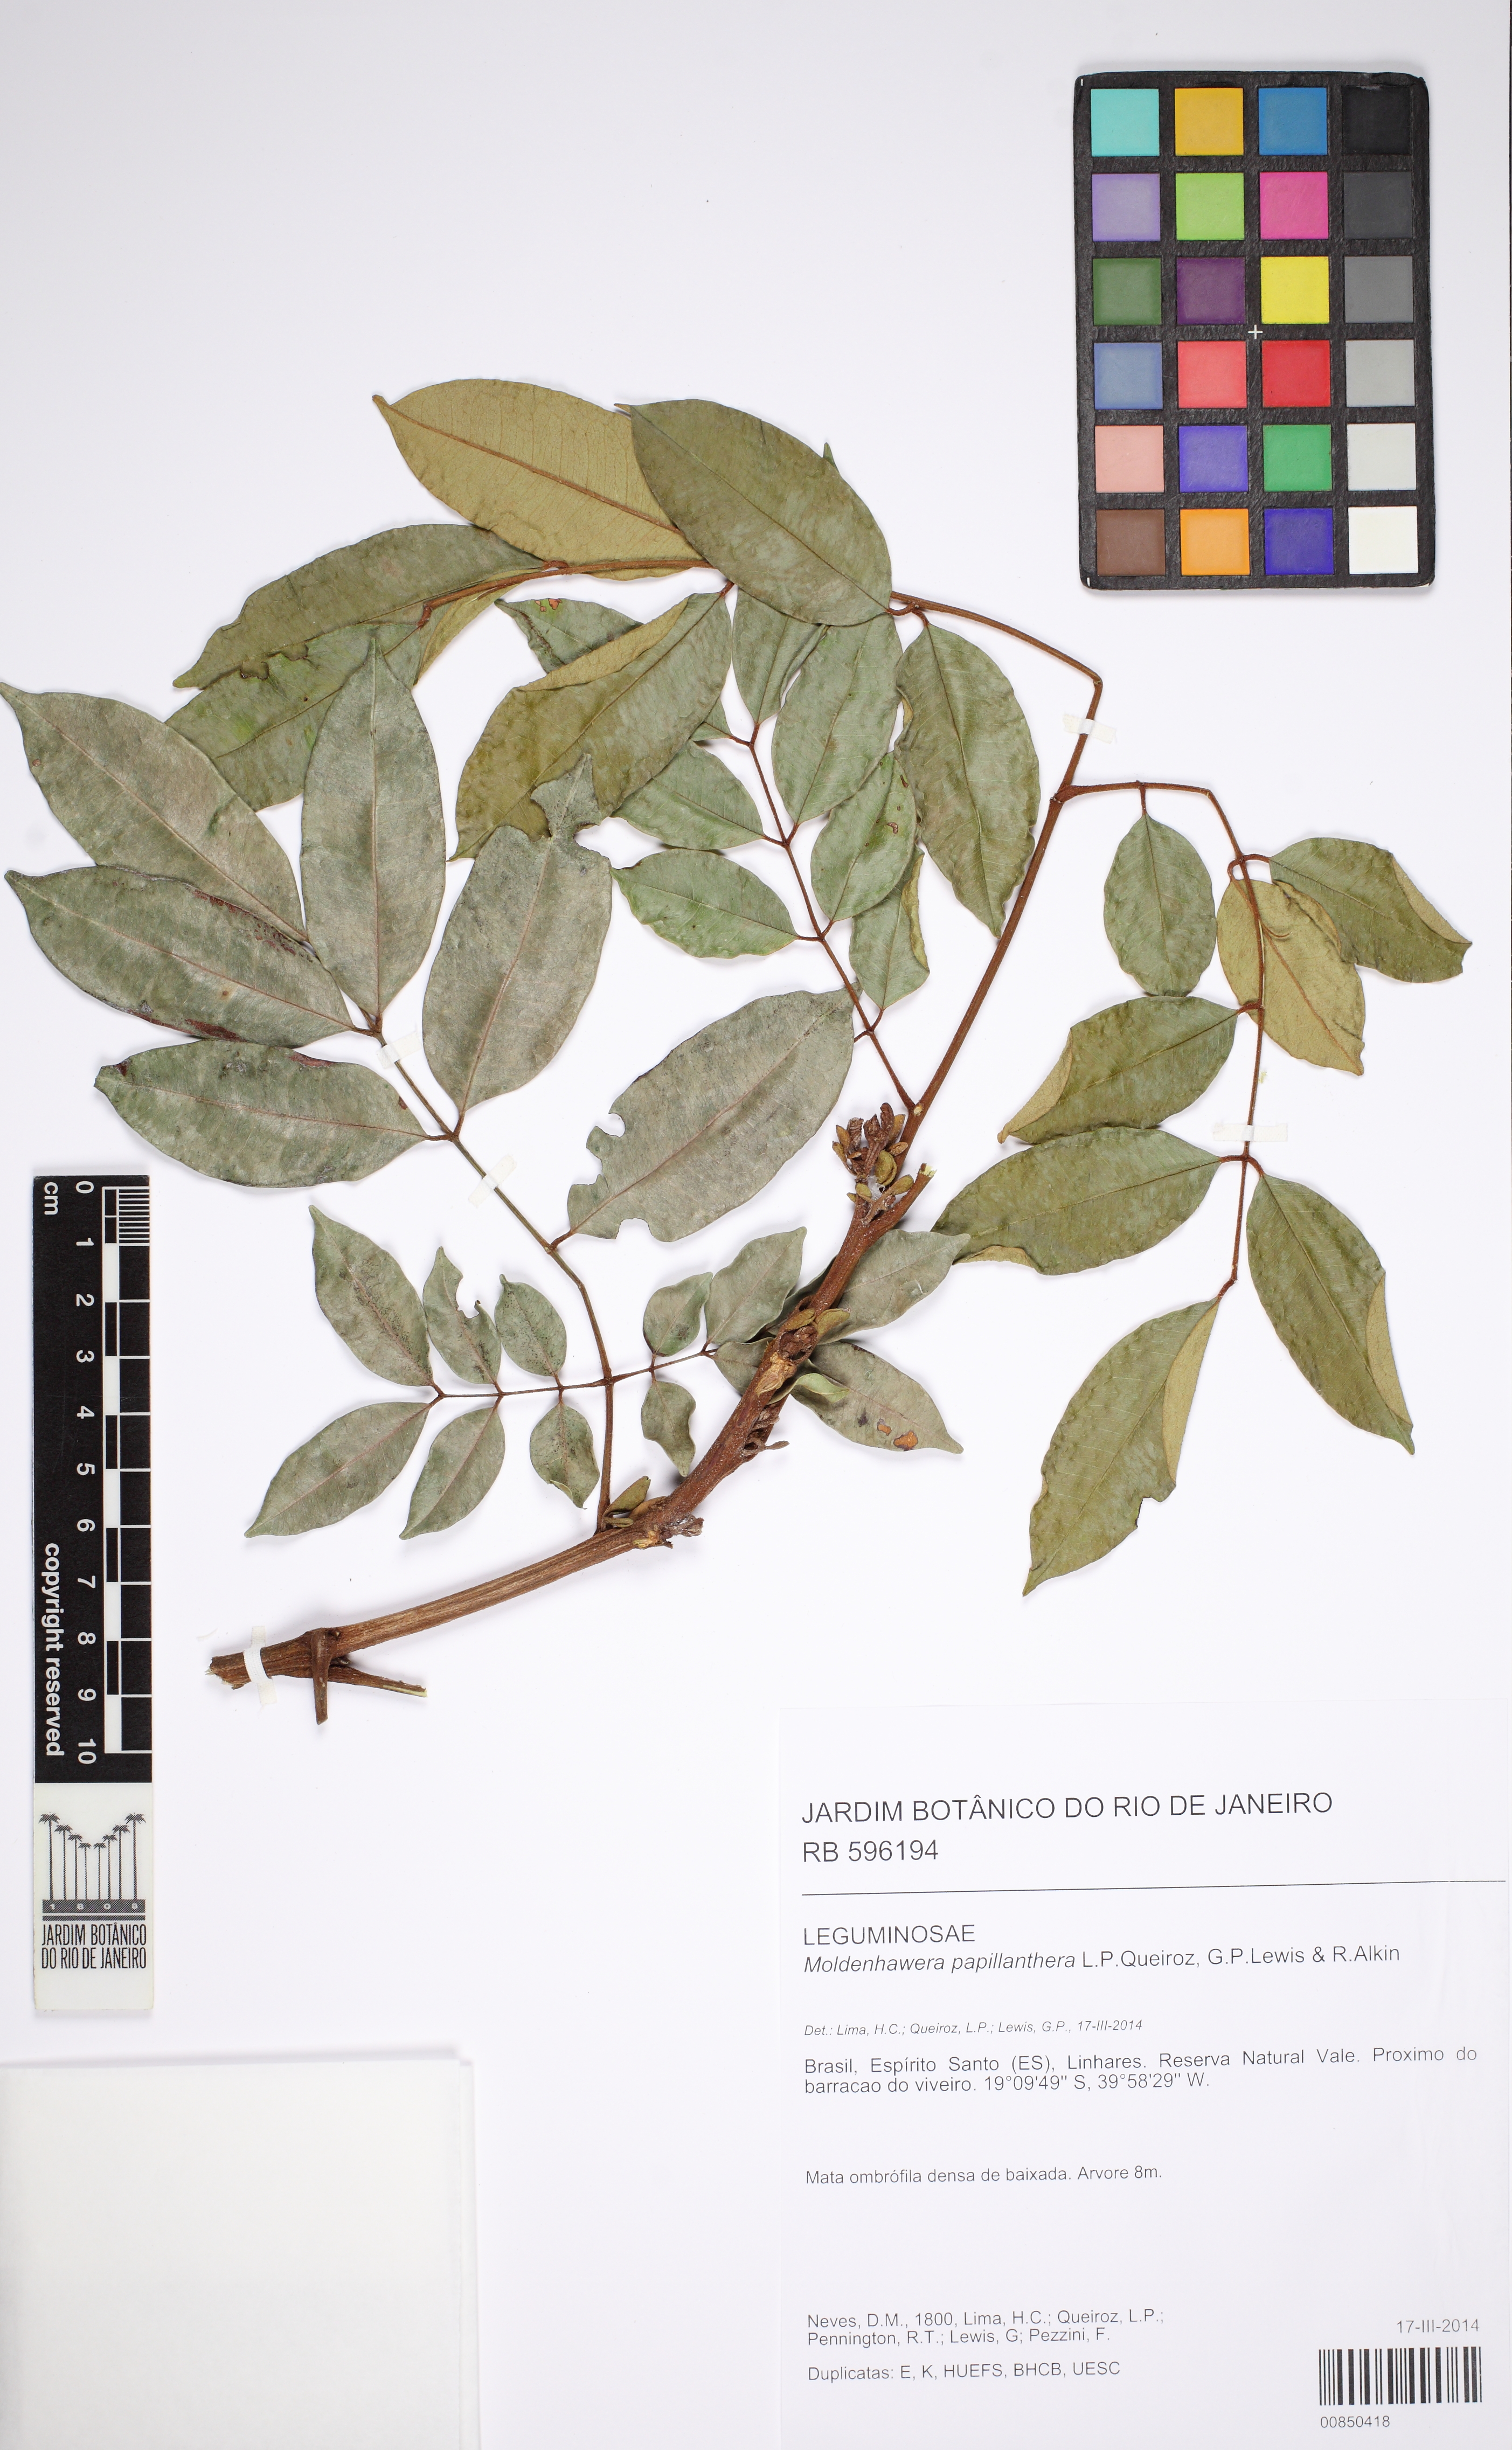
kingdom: Plantae
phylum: Tracheophyta
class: Magnoliopsida
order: Fabales
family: Fabaceae
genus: Moldenhawera
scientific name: Moldenhawera papillanthera
